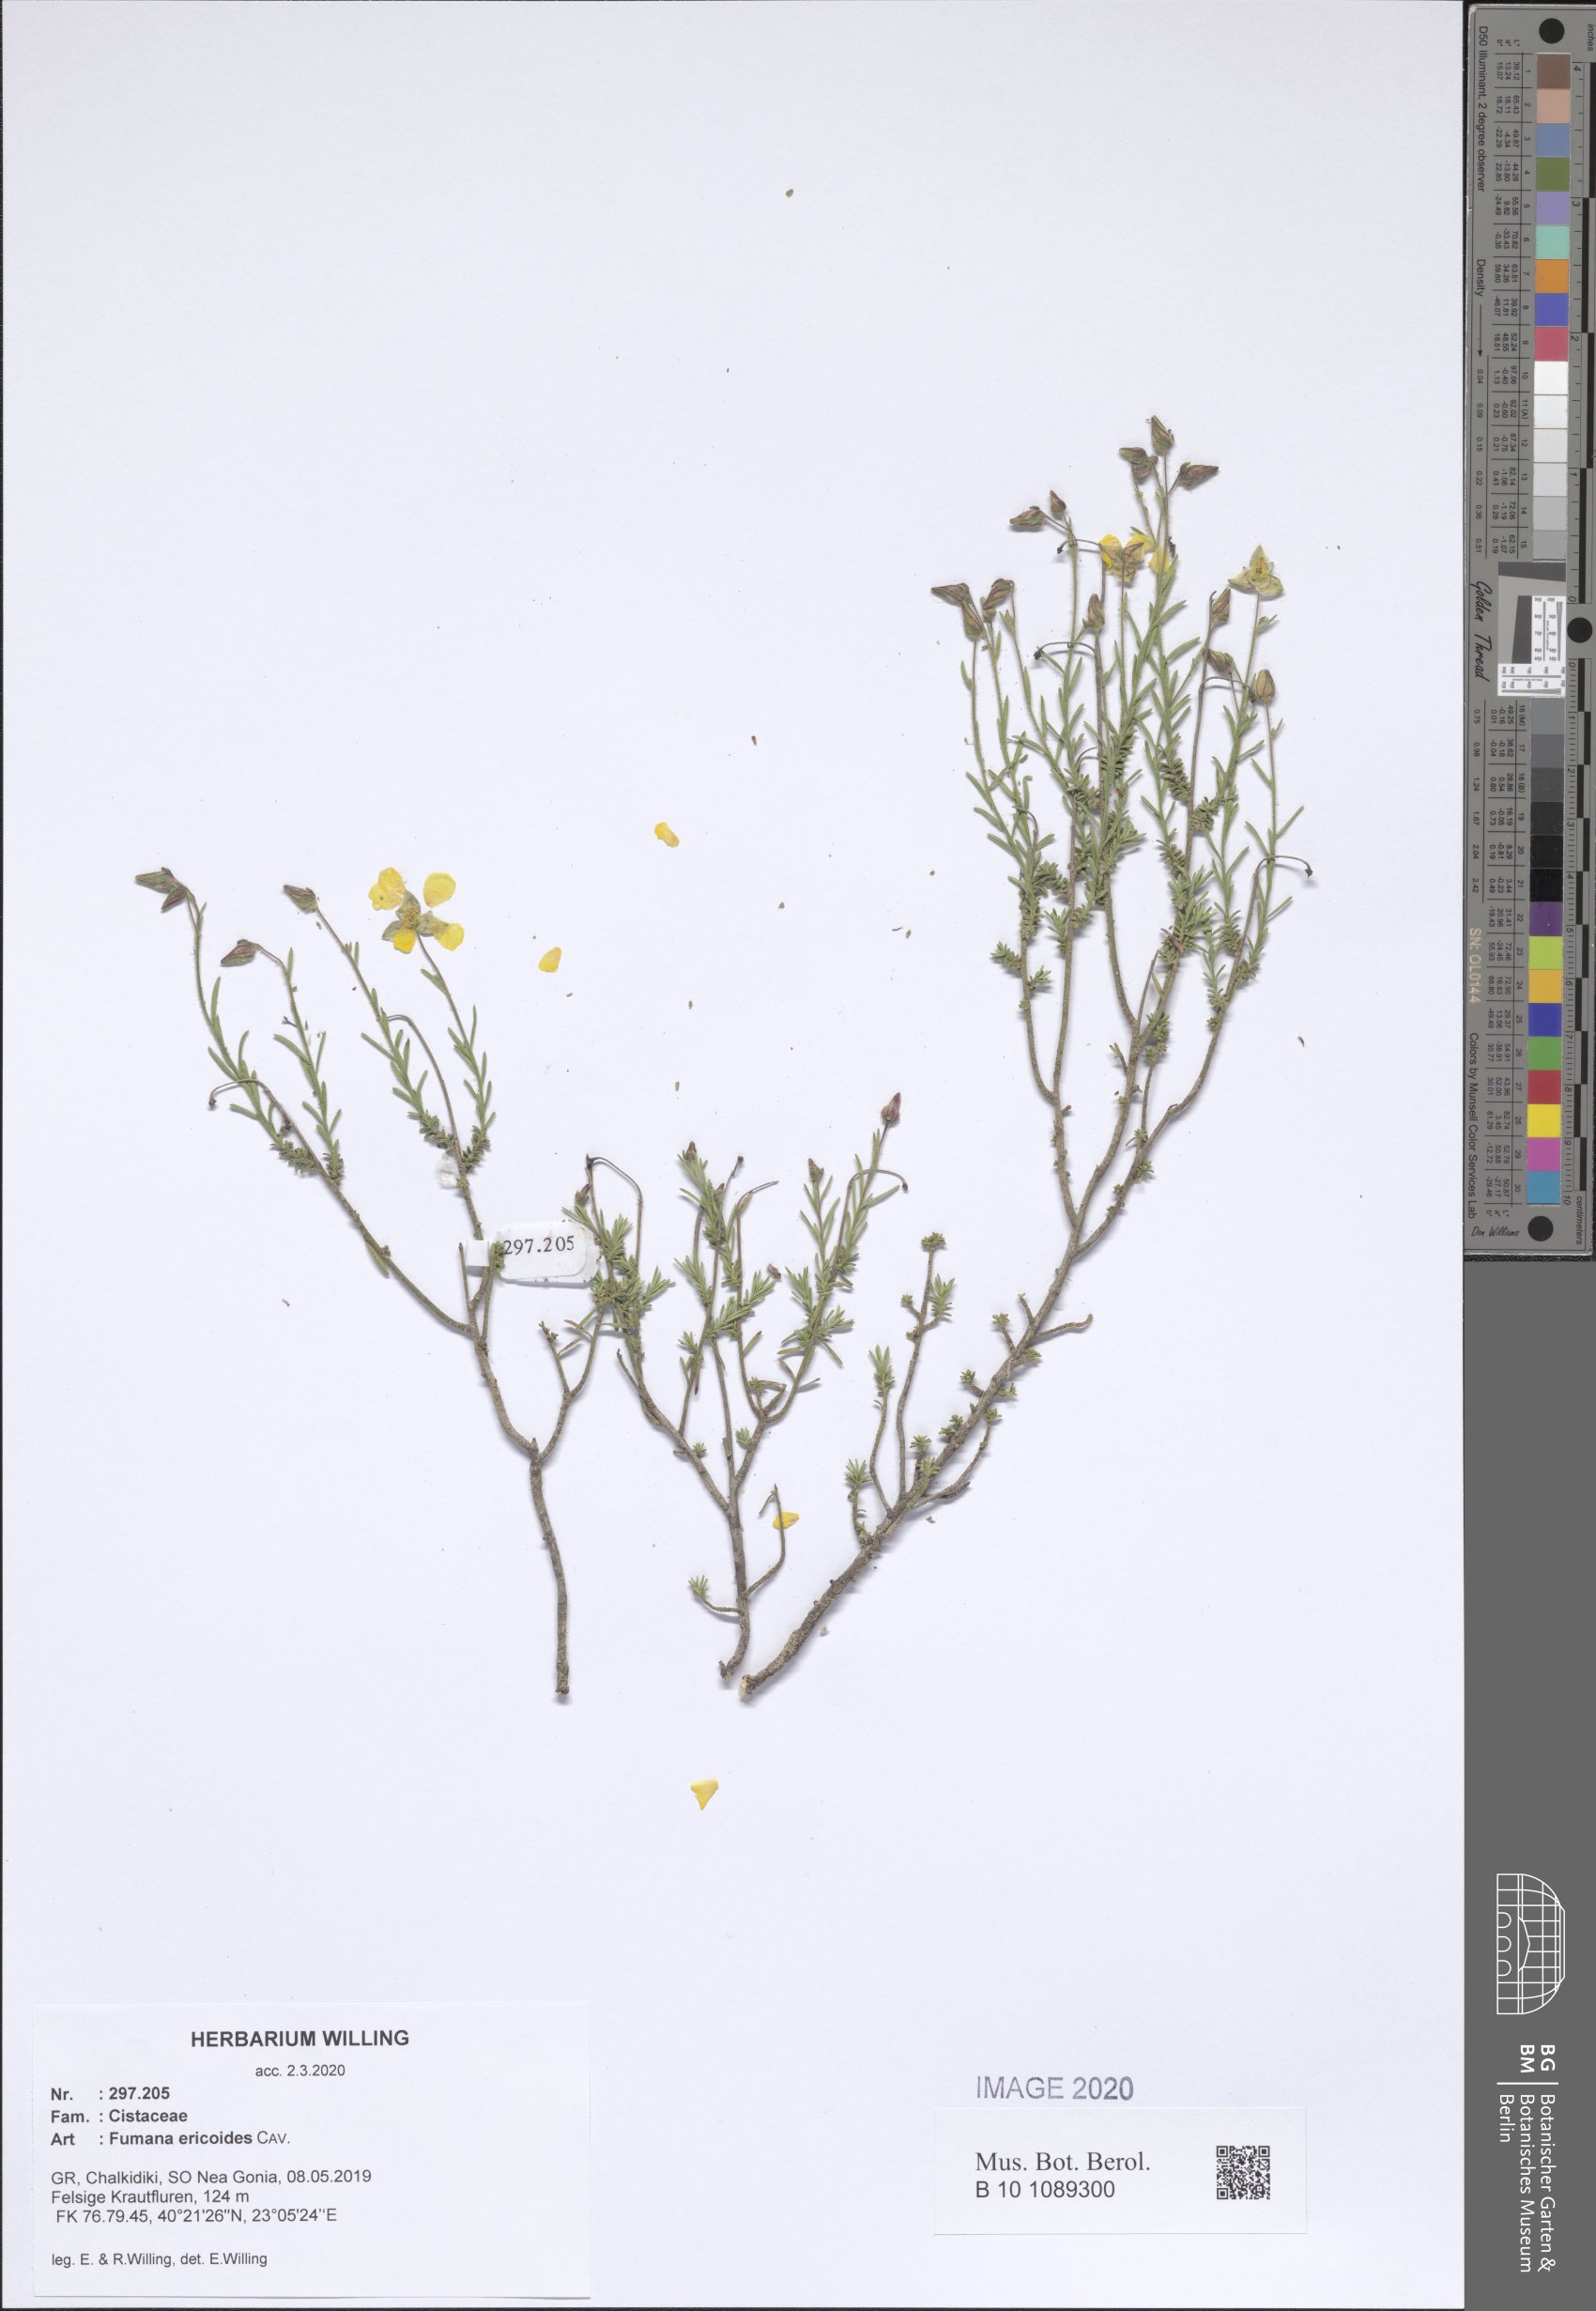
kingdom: Plantae
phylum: Tracheophyta
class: Magnoliopsida
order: Malvales
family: Cistaceae
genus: Fumana
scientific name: Fumana ericoides
